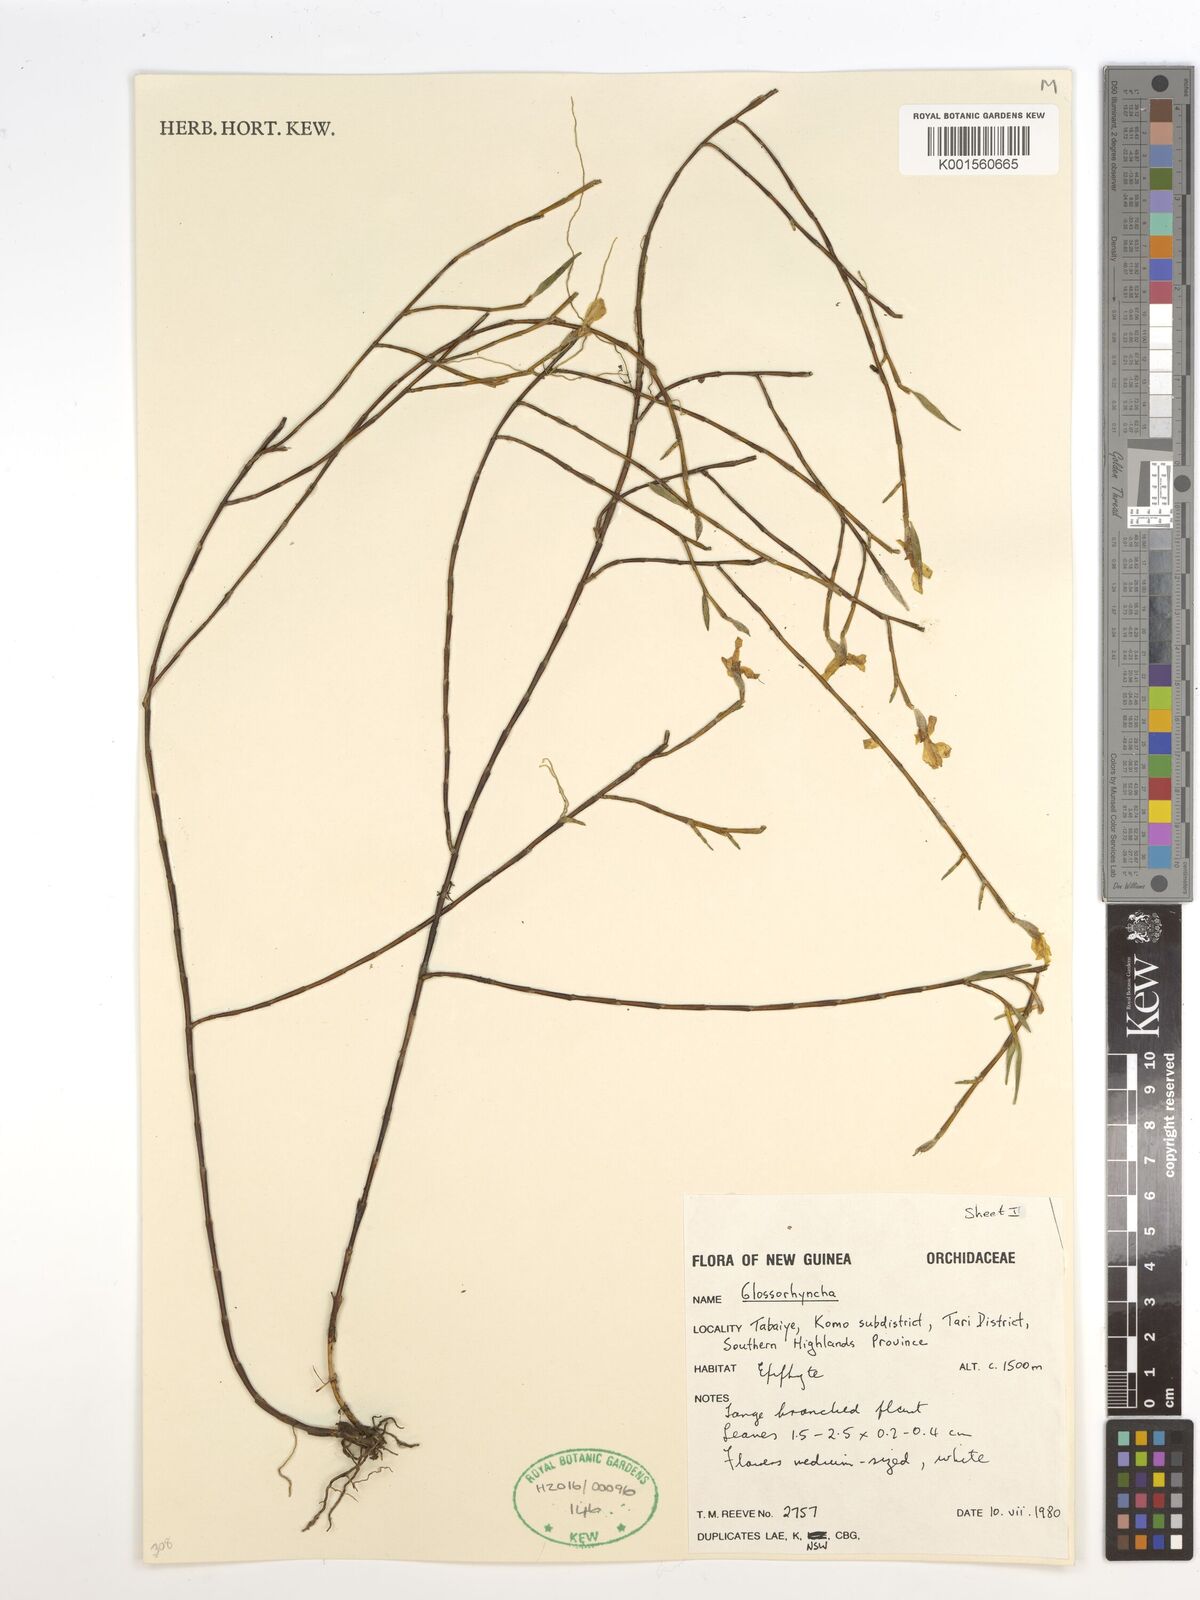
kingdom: Plantae
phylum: Tracheophyta
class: Liliopsida
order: Asparagales
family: Orchidaceae
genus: Glomera
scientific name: Glomera
